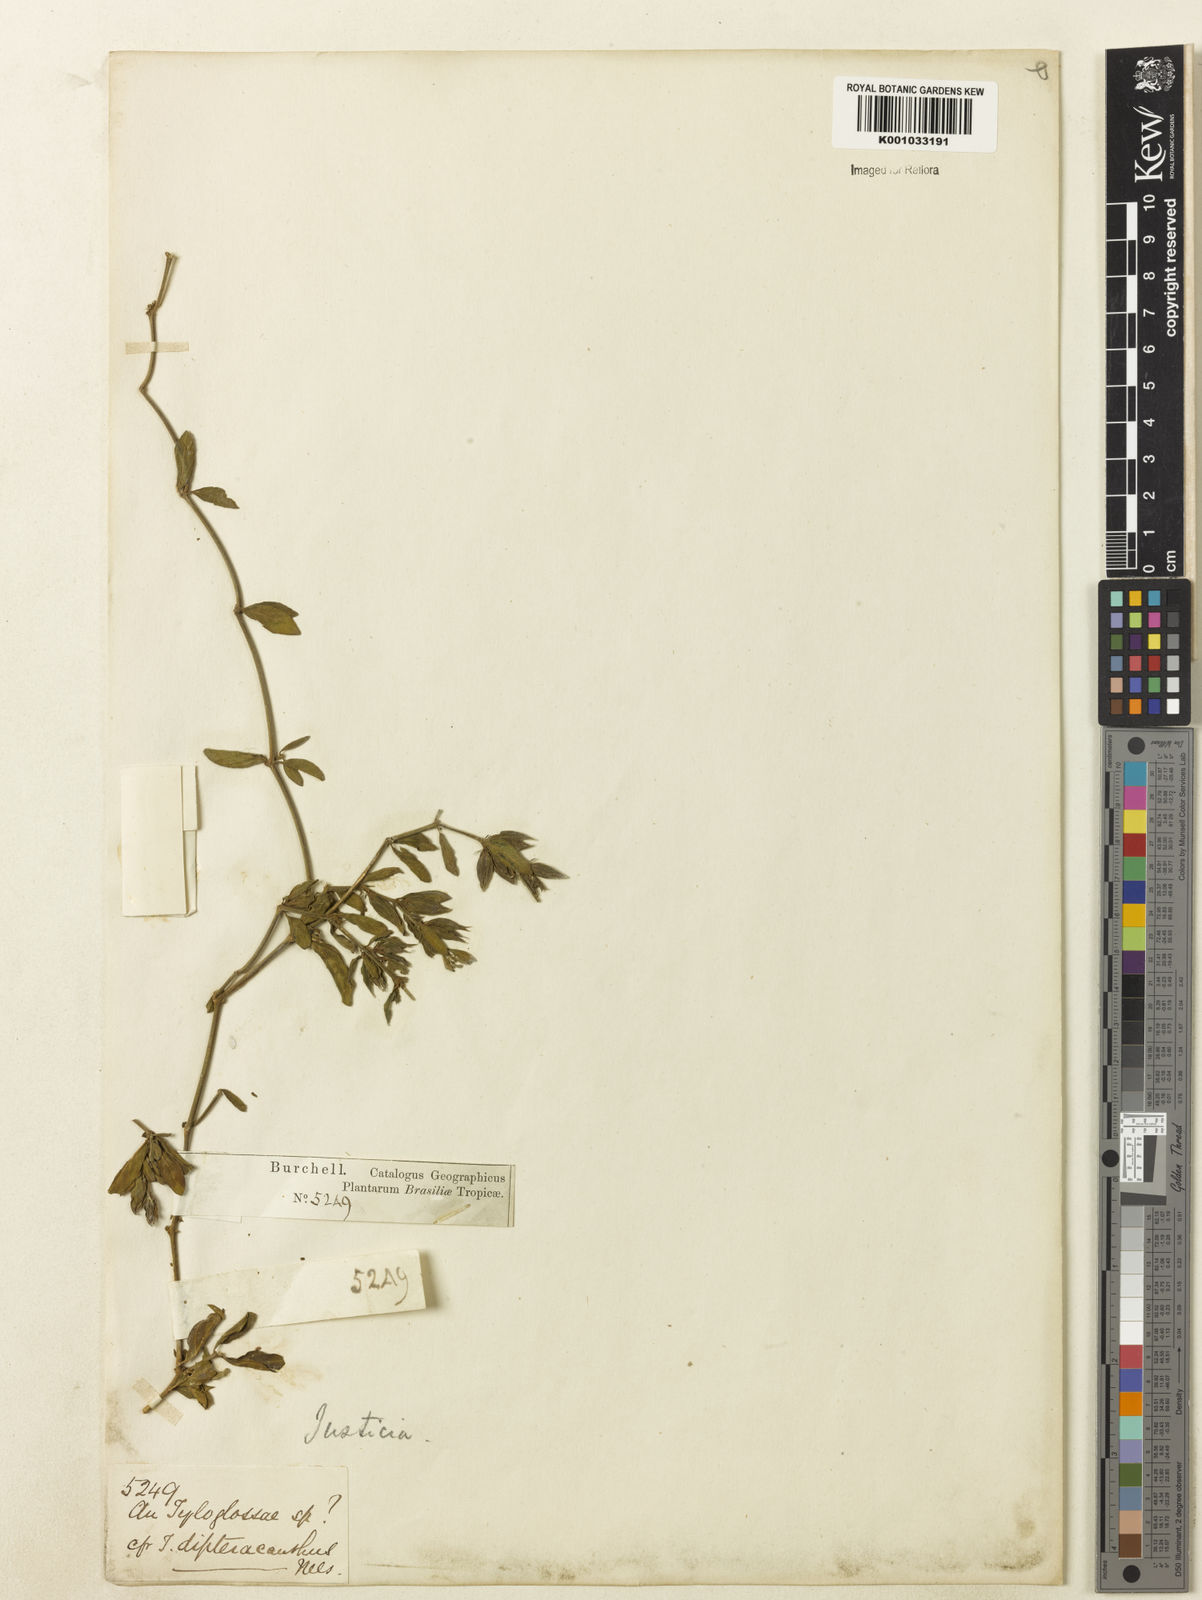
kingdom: Plantae
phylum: Tracheophyta
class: Magnoliopsida
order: Lamiales
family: Acanthaceae
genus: Justicia
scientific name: Justicia
